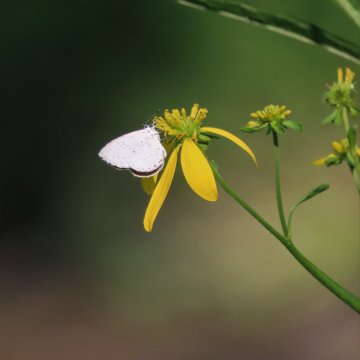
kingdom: Animalia
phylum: Arthropoda
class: Insecta
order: Lepidoptera
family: Lycaenidae
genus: Cyaniris
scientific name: Cyaniris neglecta
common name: Summer Azure
